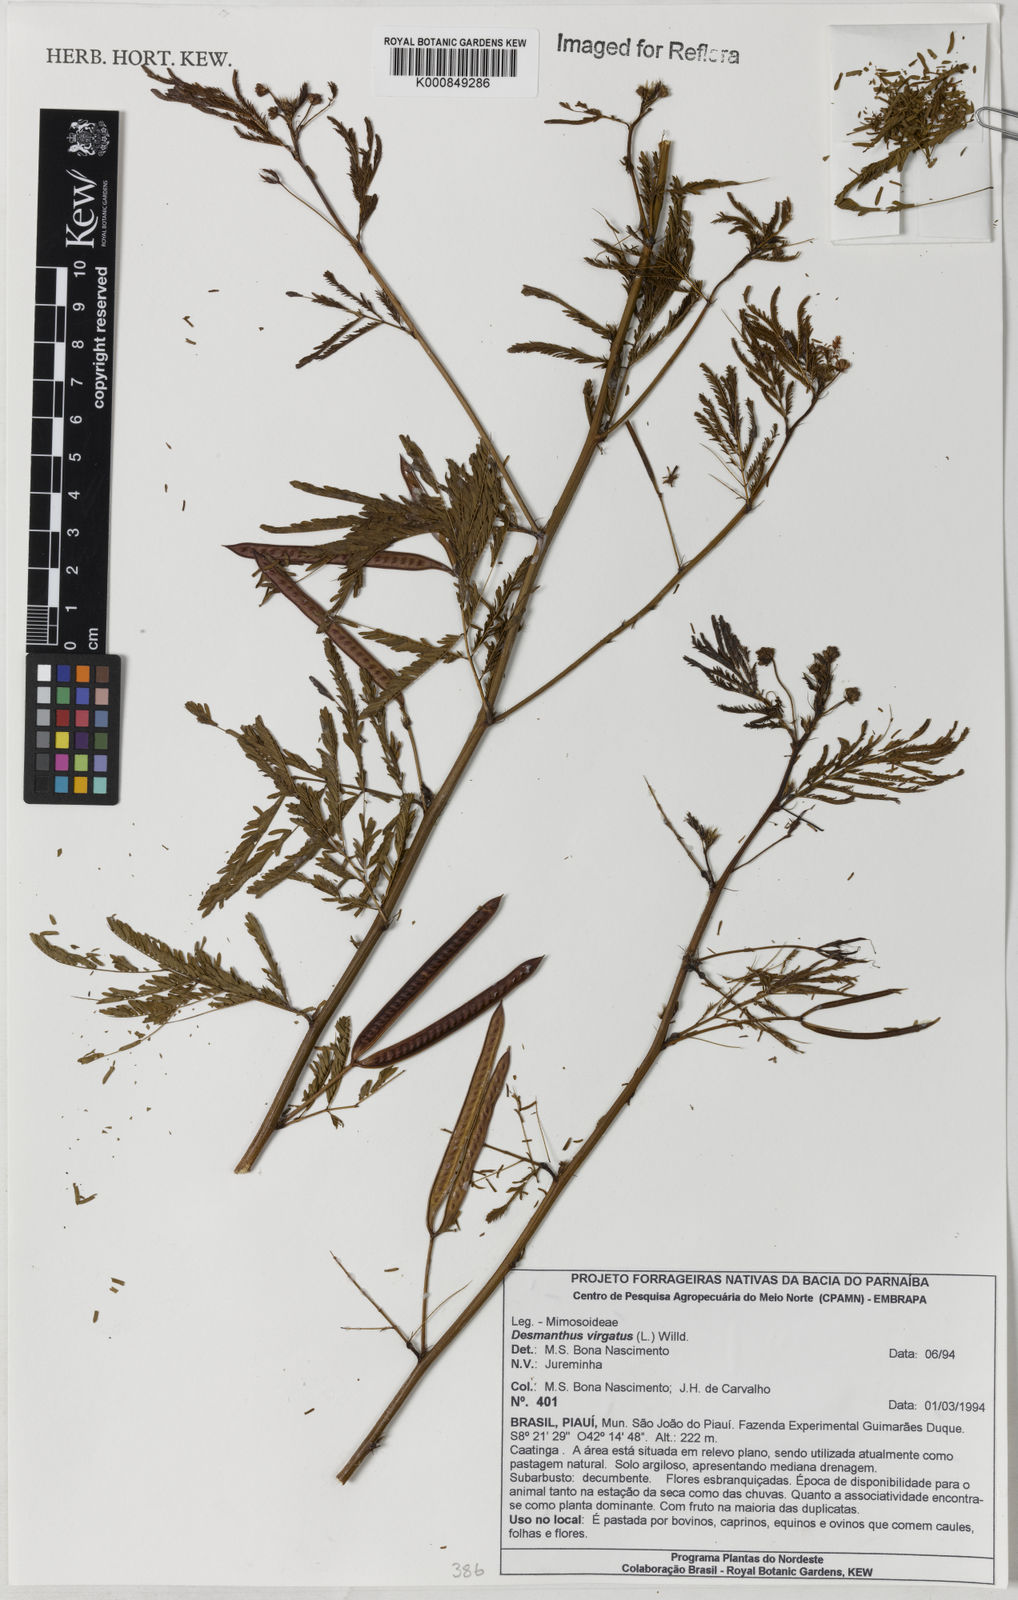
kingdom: Plantae
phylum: Tracheophyta
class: Magnoliopsida
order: Fabales
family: Fabaceae
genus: Desmanthus
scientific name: Desmanthus virgatus
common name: Wild tantan
